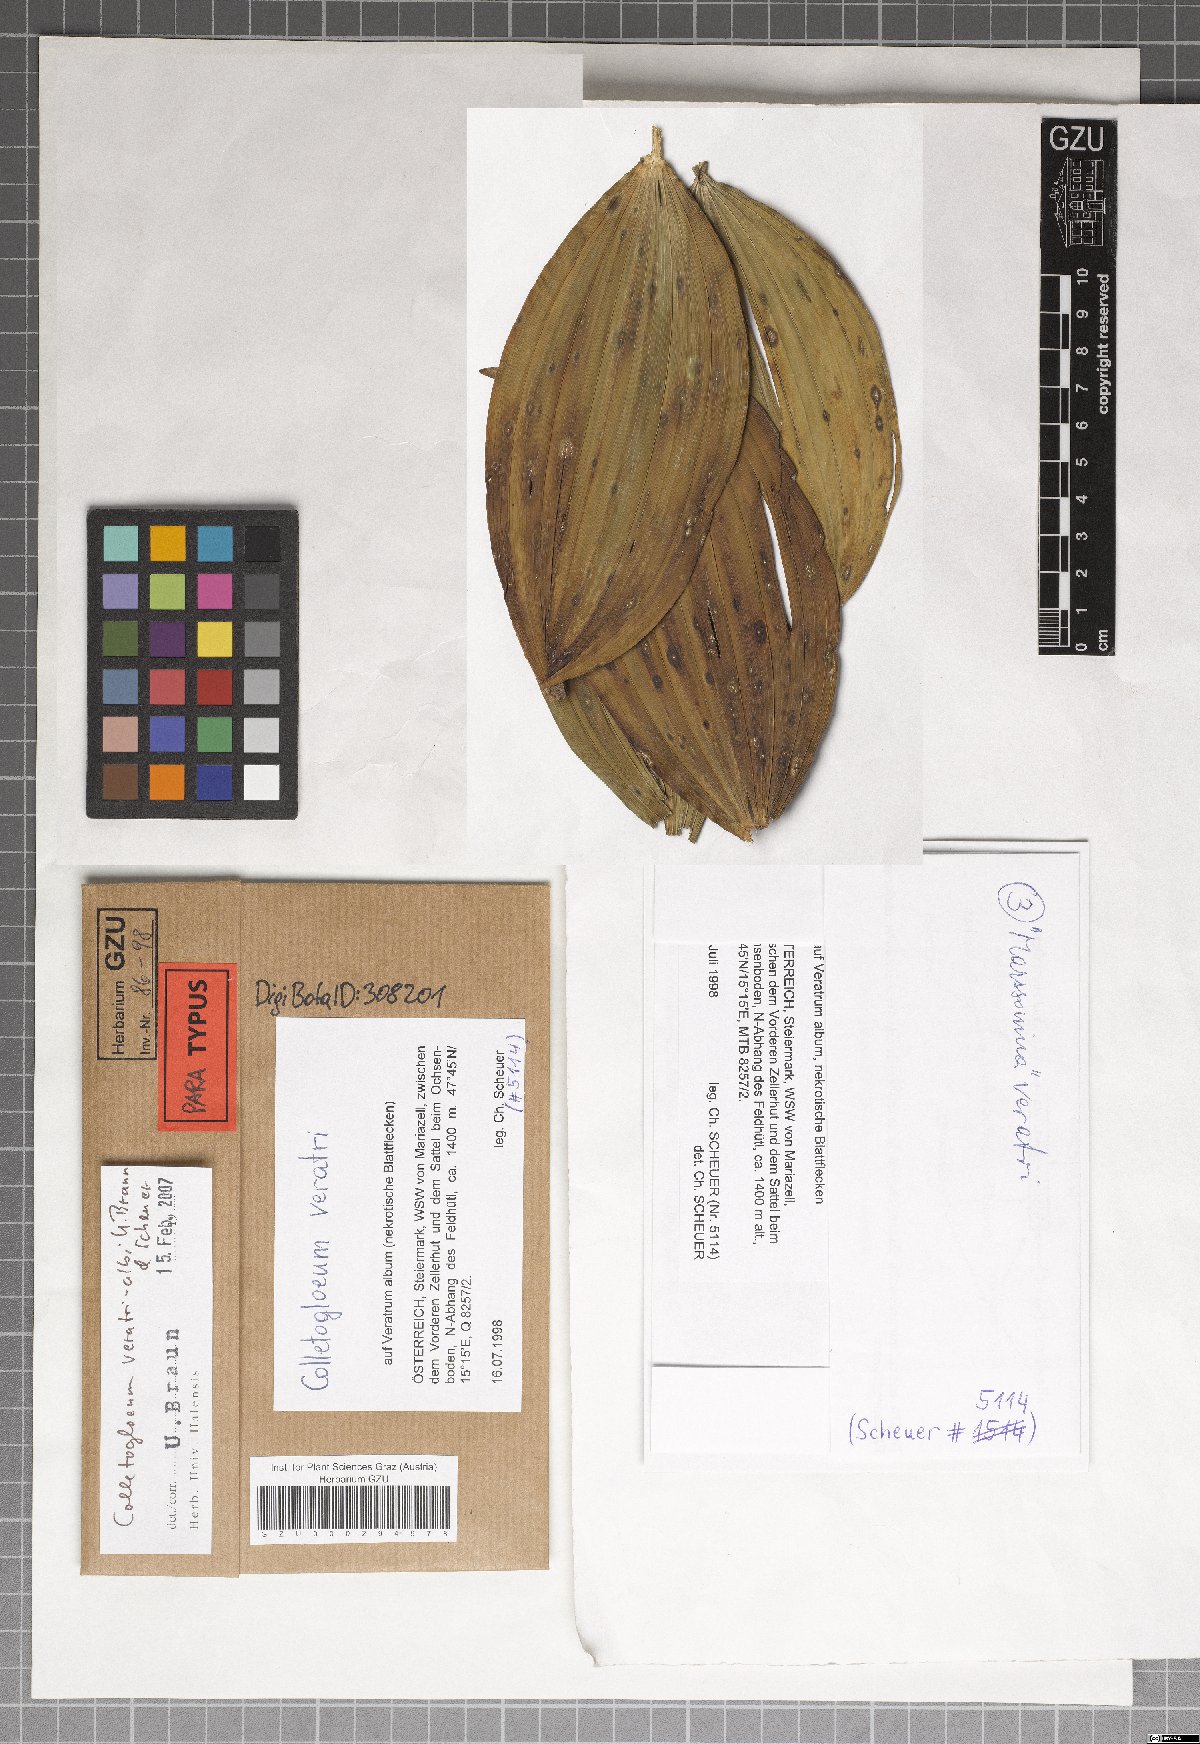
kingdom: Fungi
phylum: Ascomycota
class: Dothideomycetes
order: Mycosphaerellales
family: Mycosphaerellaceae
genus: Colletogloeum
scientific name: Colletogloeum veratri-albi
